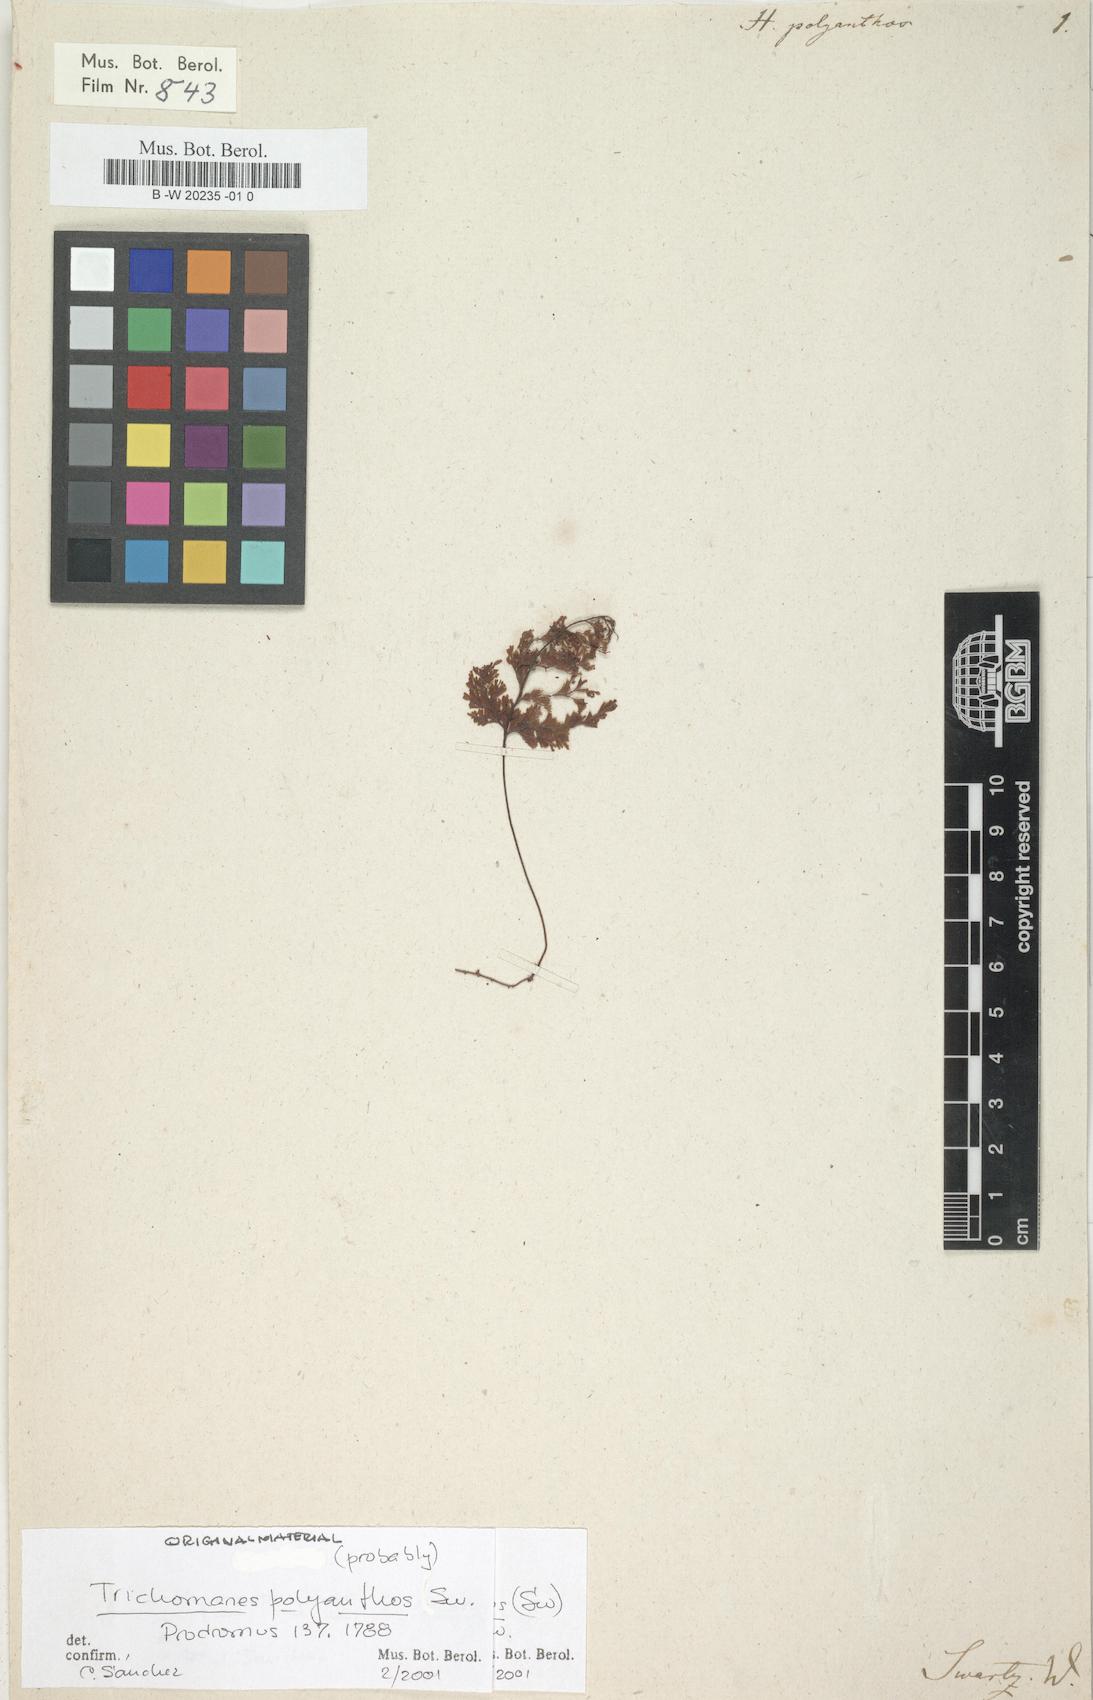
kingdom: Plantae
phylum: Tracheophyta
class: Polypodiopsida
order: Hymenophyllales
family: Hymenophyllaceae
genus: Hymenophyllum
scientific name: Hymenophyllum polyanthos
